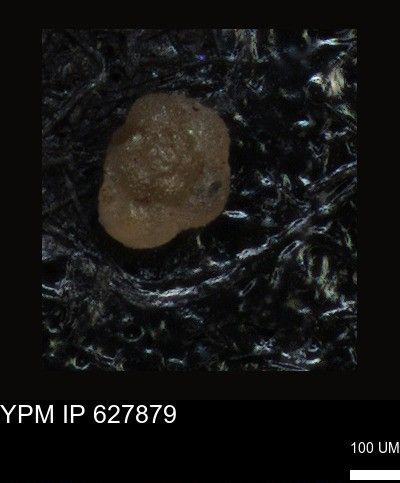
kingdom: Chromista
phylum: Foraminifera
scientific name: Foraminifera
